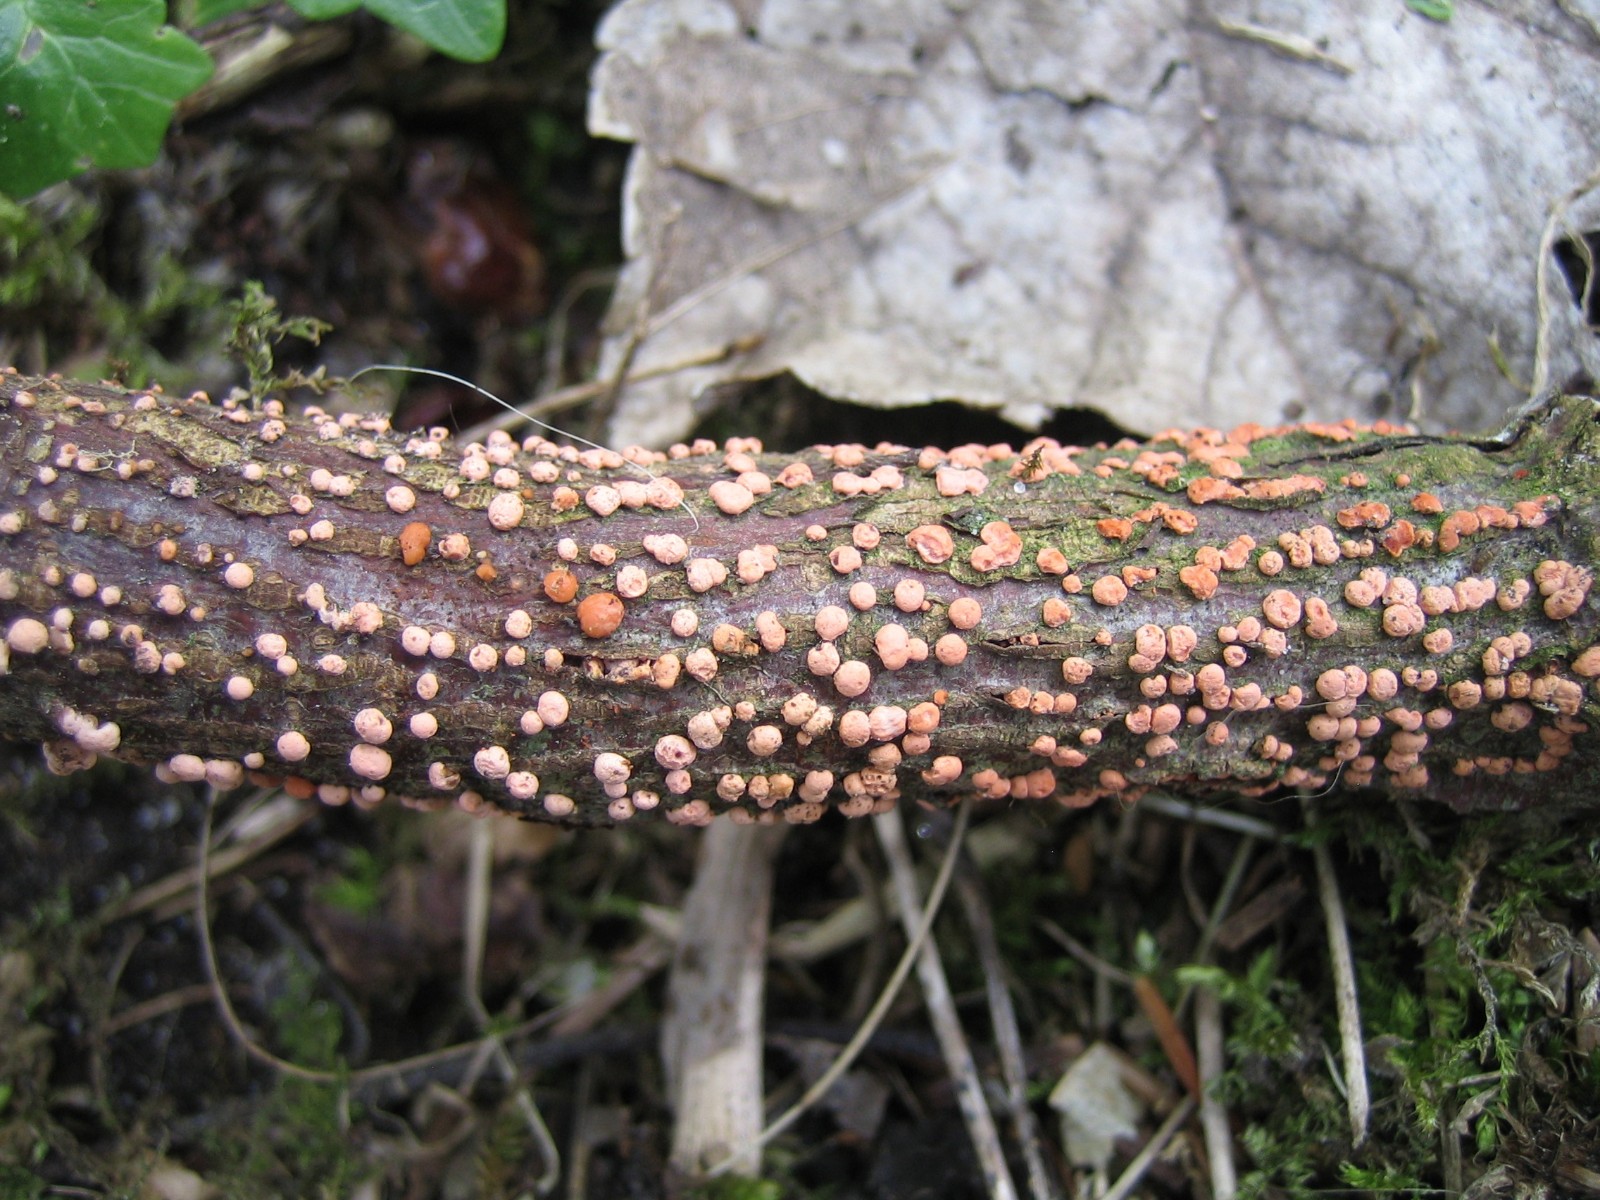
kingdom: Fungi
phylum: Ascomycota
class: Sordariomycetes
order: Hypocreales
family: Nectriaceae
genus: Nectria
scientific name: Nectria cinnabarina
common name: almindelig cinnobersvamp
